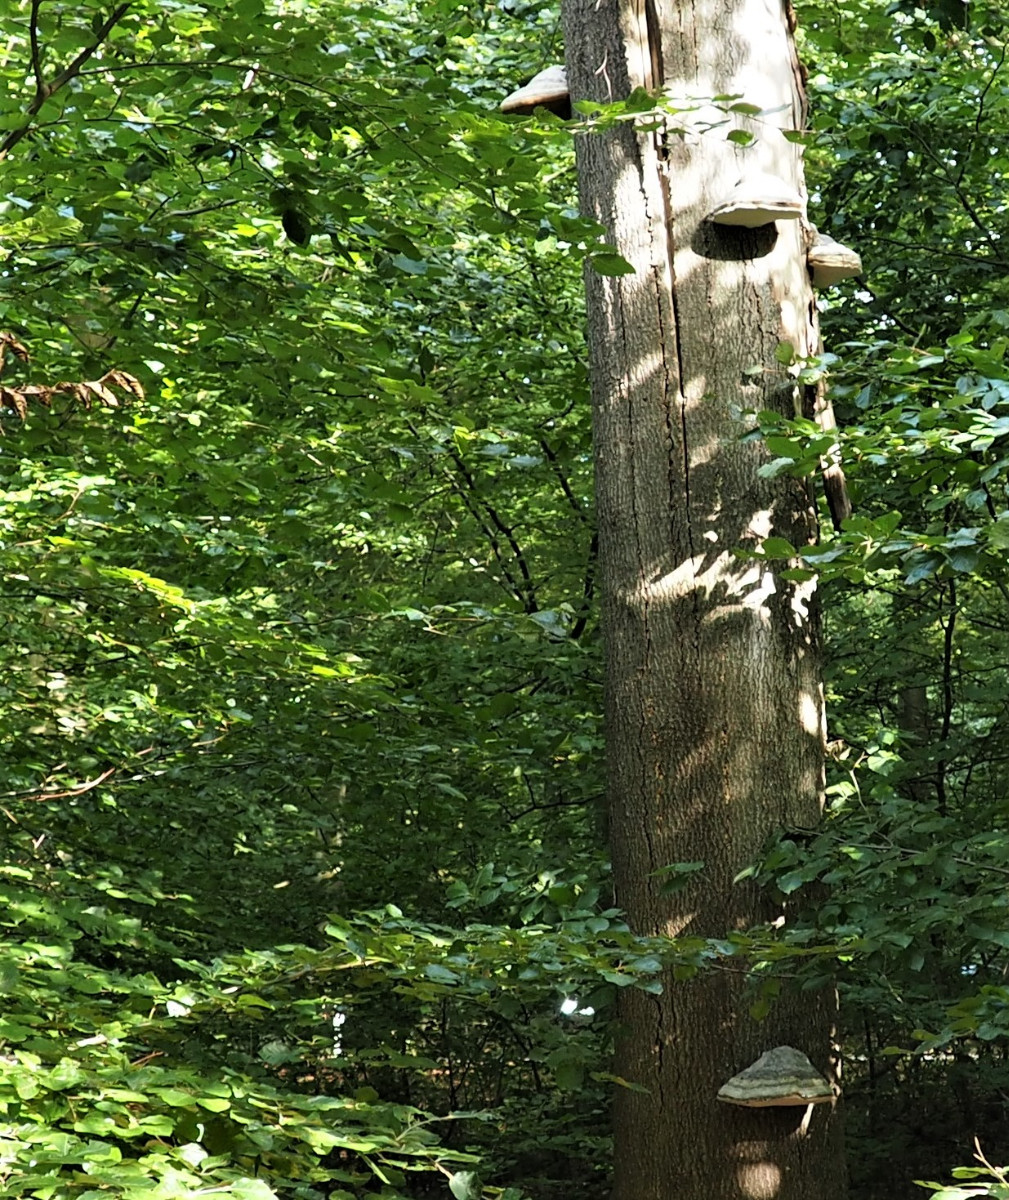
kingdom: Fungi
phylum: Basidiomycota
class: Agaricomycetes
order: Polyporales
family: Polyporaceae
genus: Fomes
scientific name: Fomes fomentarius
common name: tøndersvamp
